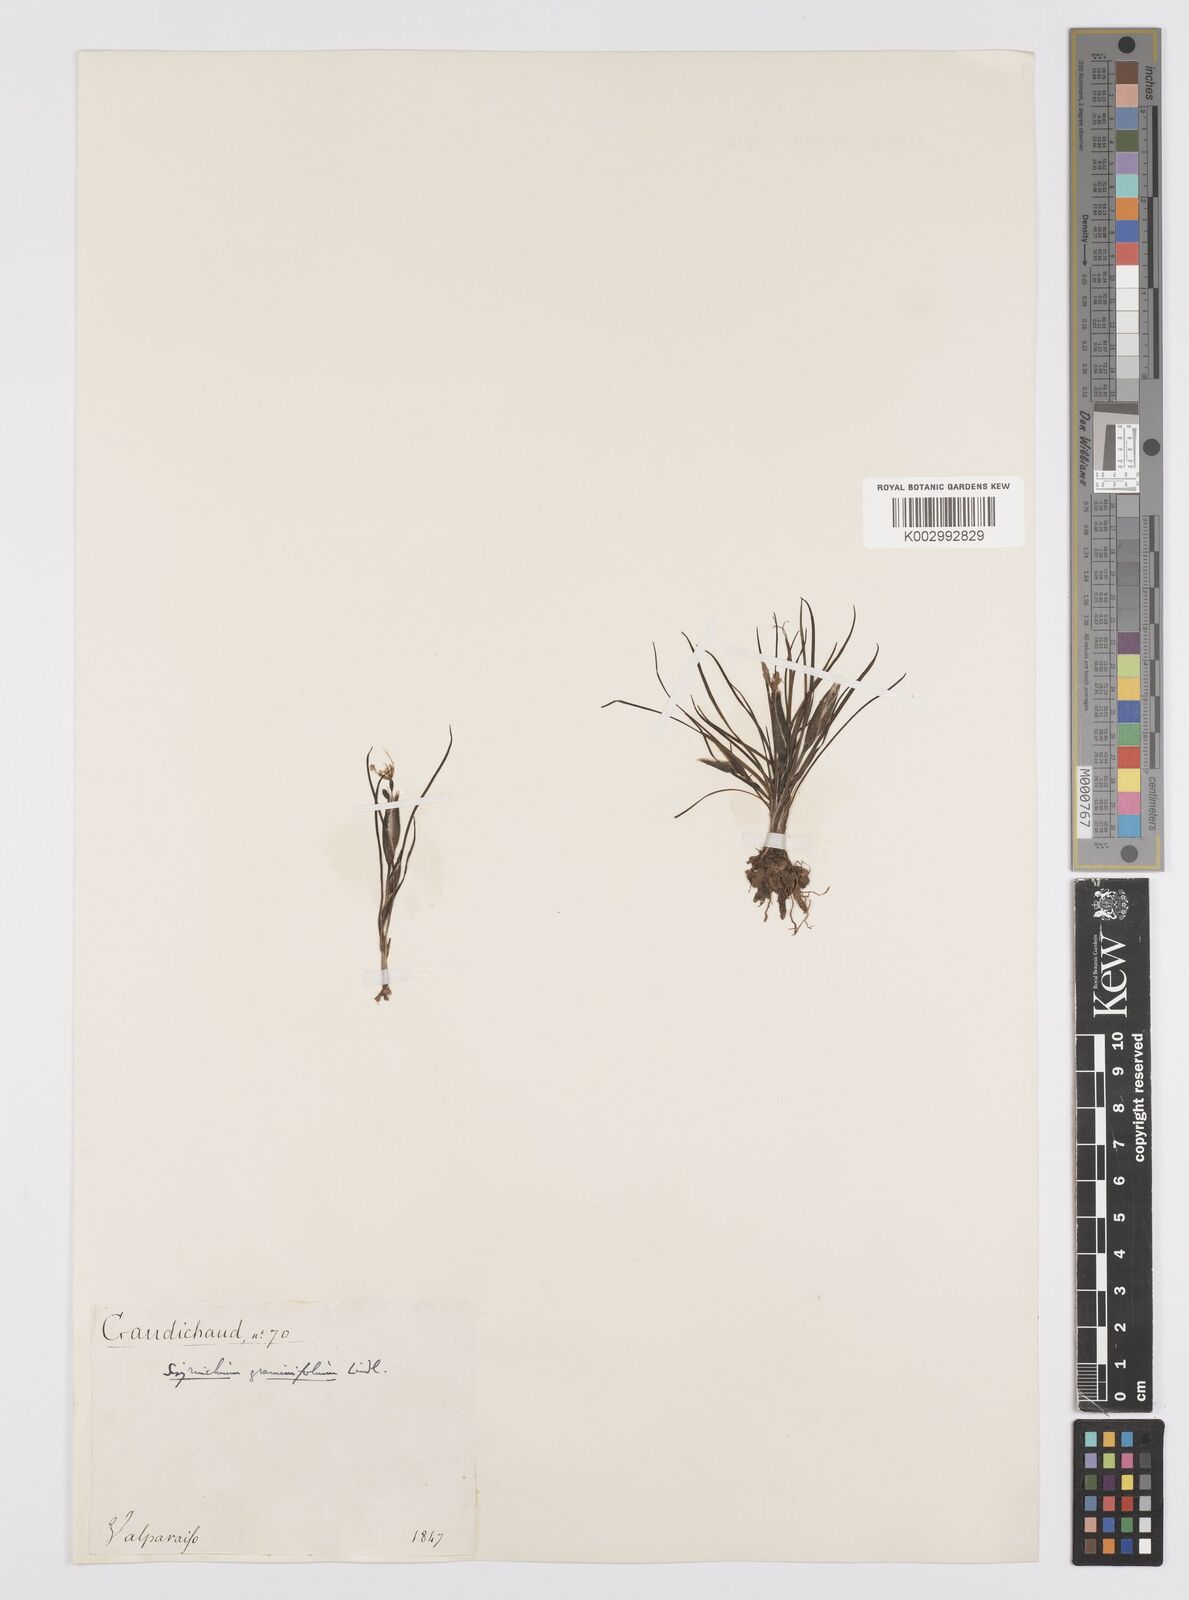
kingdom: Plantae
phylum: Tracheophyta
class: Liliopsida
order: Asparagales
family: Iridaceae
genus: Sisyrinchium
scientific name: Sisyrinchium graminifolium
